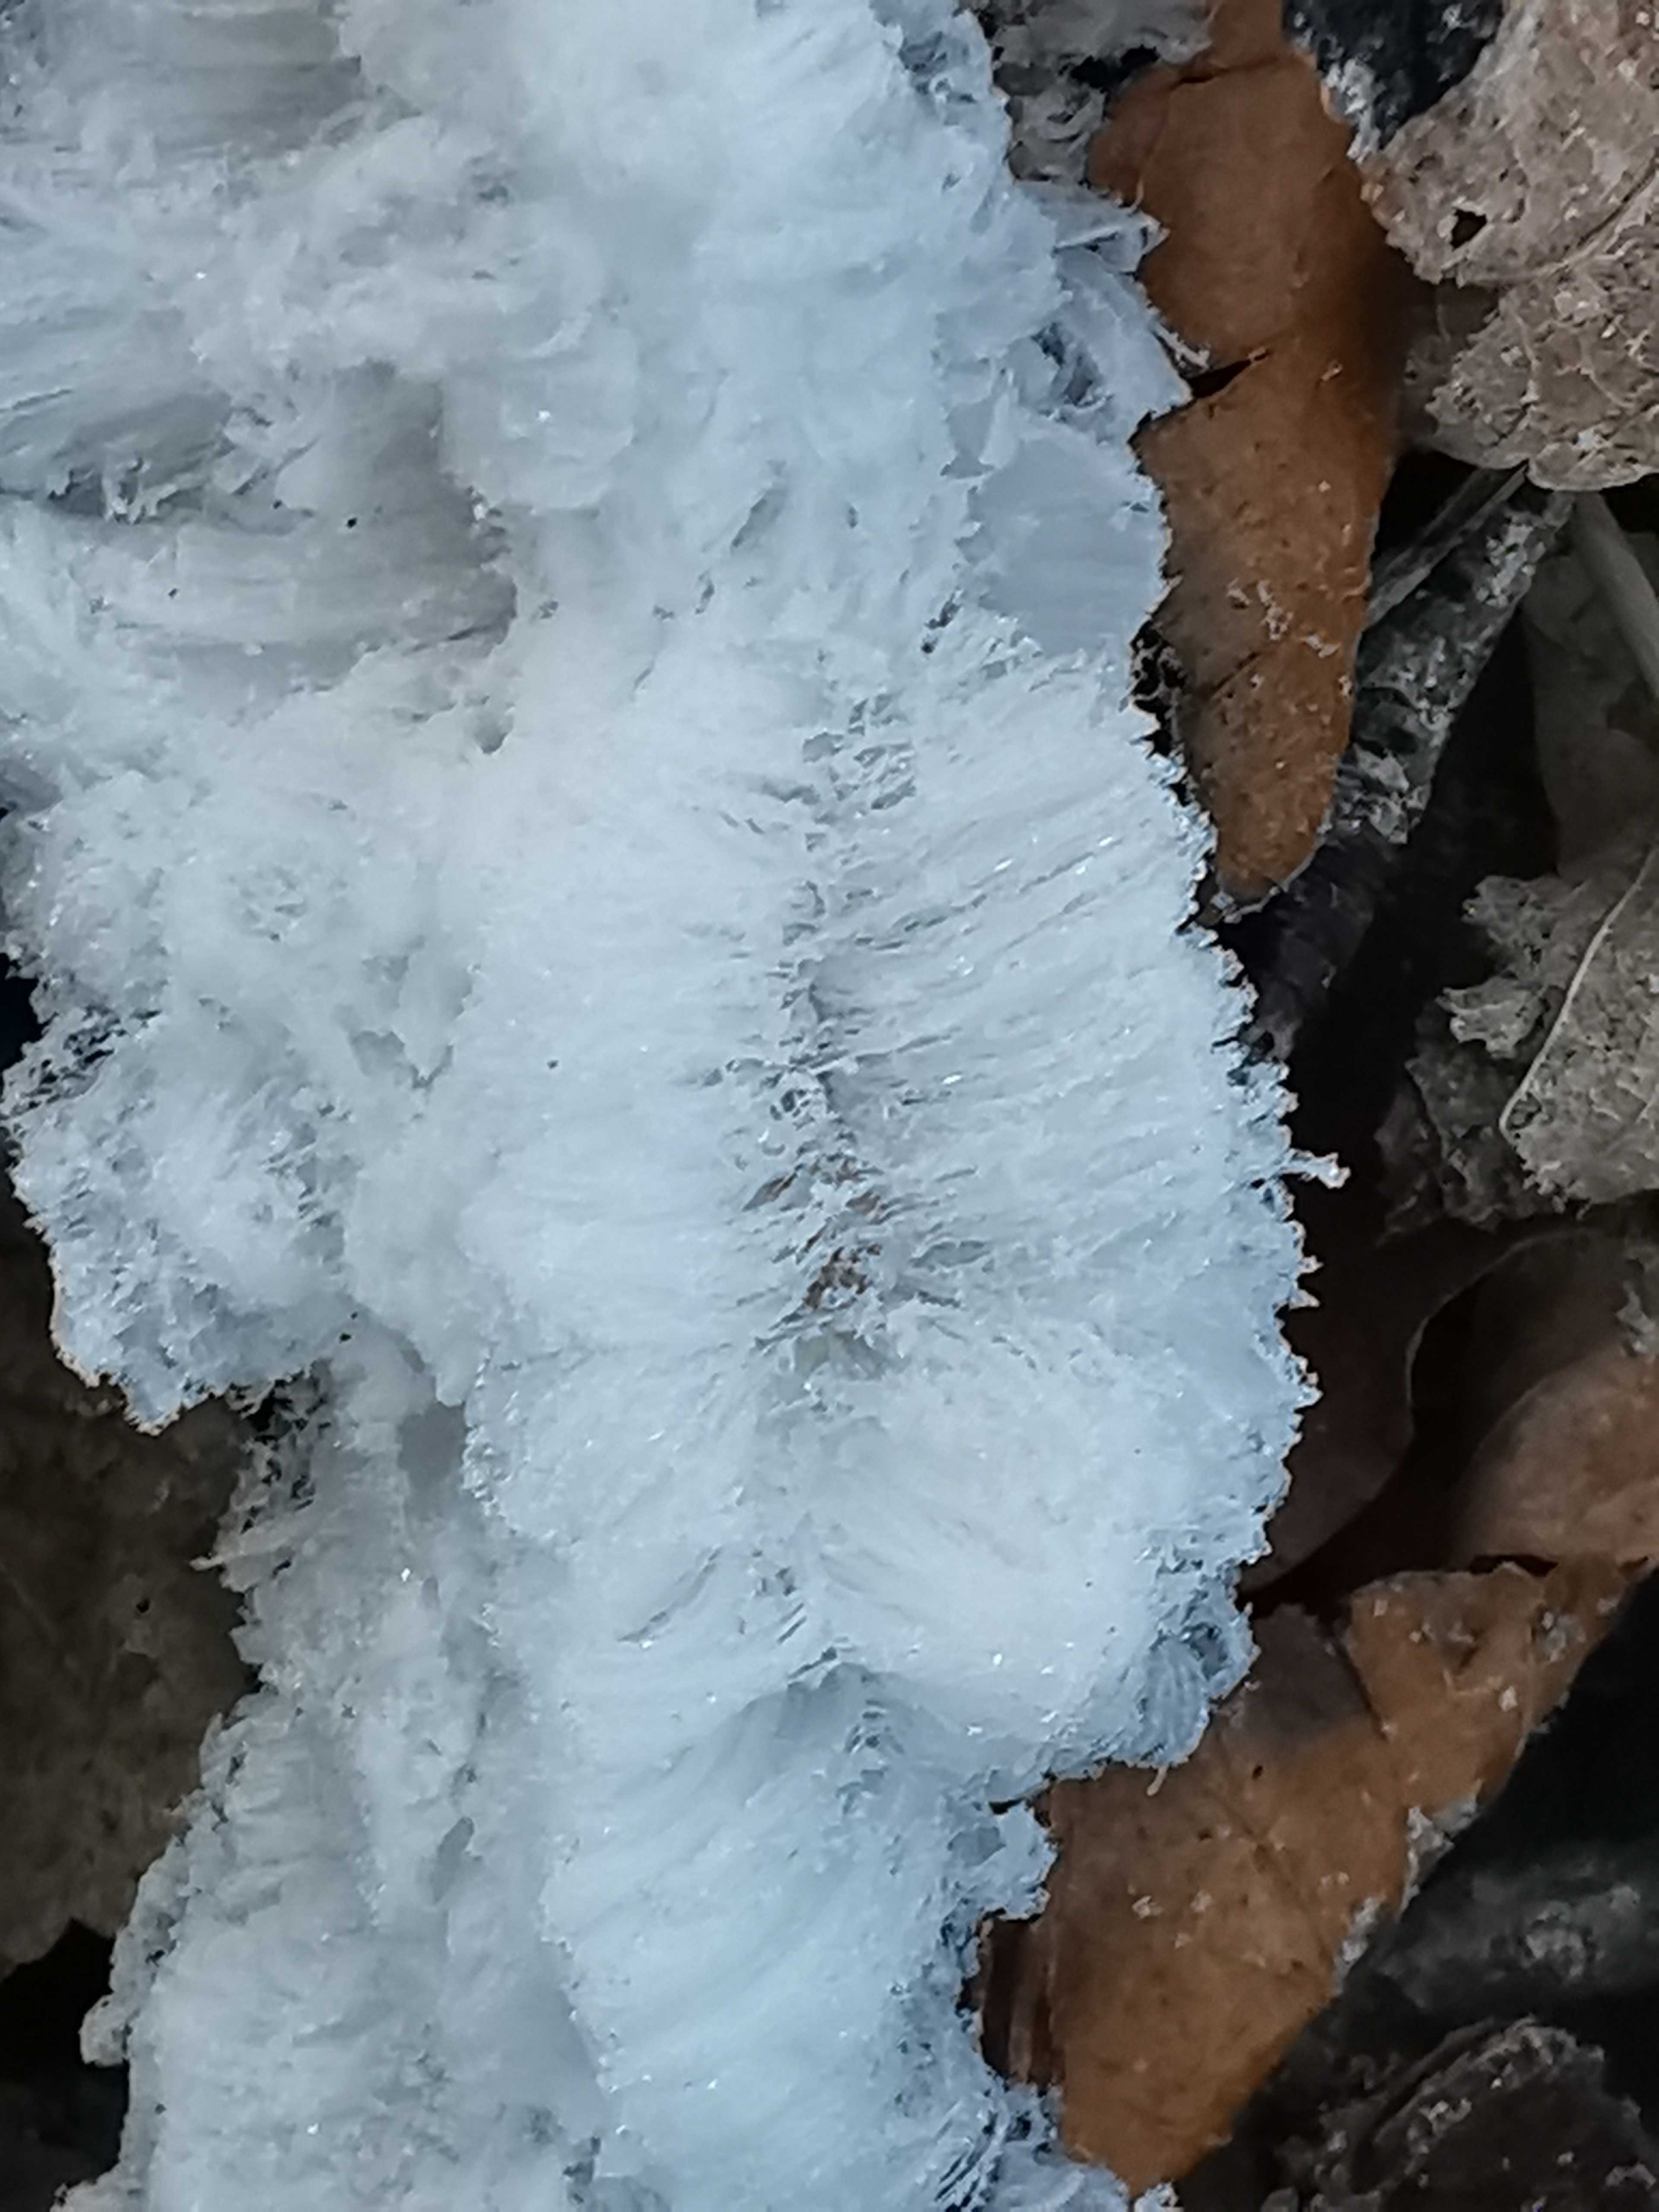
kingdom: Fungi
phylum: Basidiomycota
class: Tremellomycetes
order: Tremellales
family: Exidiaceae
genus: Exidiopsis
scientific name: Exidiopsis effusa
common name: smuk bævrehinde
